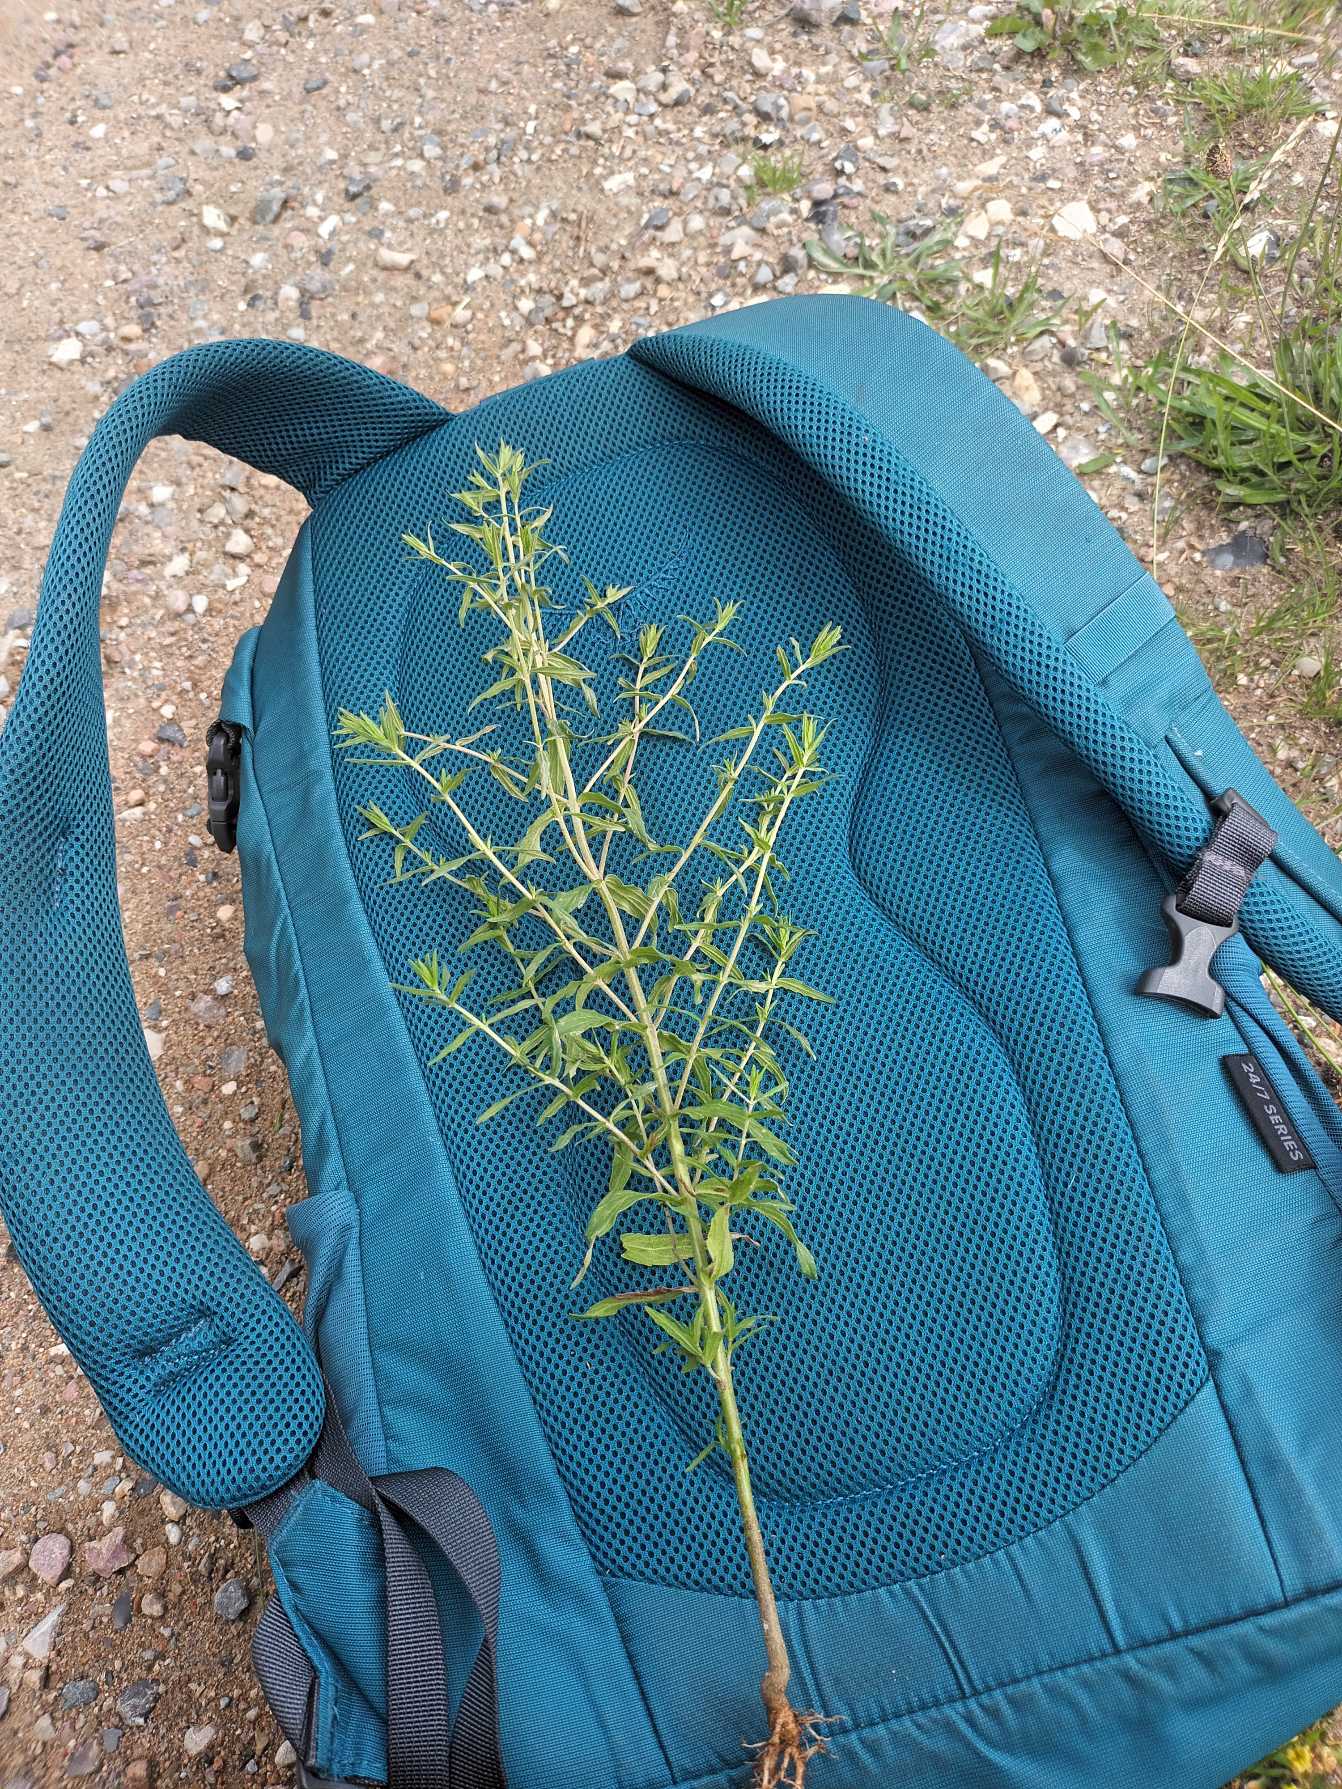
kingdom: Plantae
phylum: Tracheophyta
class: Magnoliopsida
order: Lamiales
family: Orobanchaceae
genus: Odontites
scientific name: Odontites vulgaris
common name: Høst-rødtop
